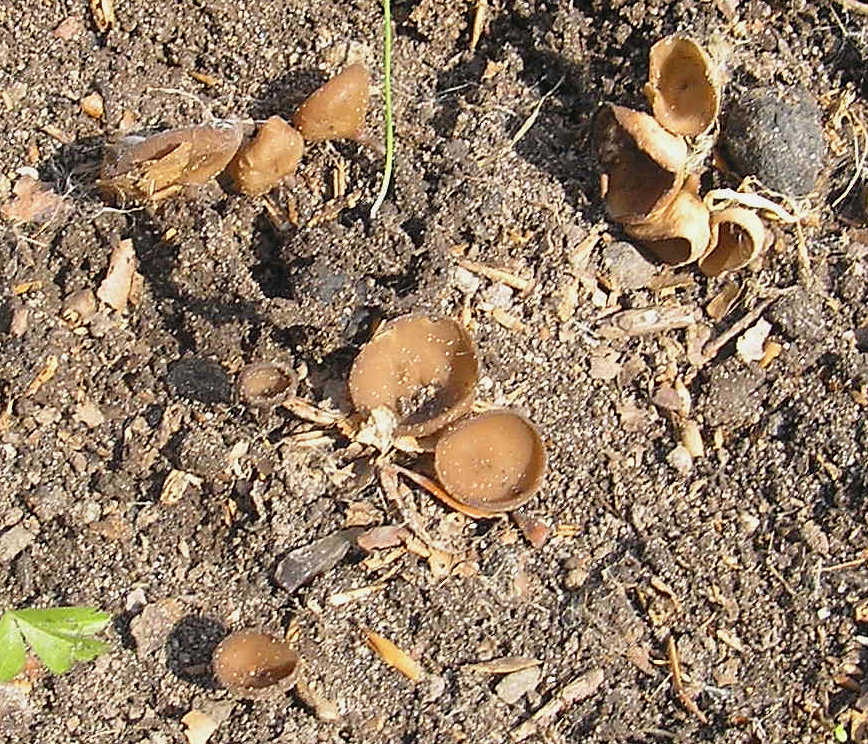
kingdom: Fungi
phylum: Ascomycota
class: Leotiomycetes
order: Helotiales
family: Sclerotiniaceae
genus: Dumontinia
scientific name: Dumontinia tuberosa
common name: anemone-knoldskive
